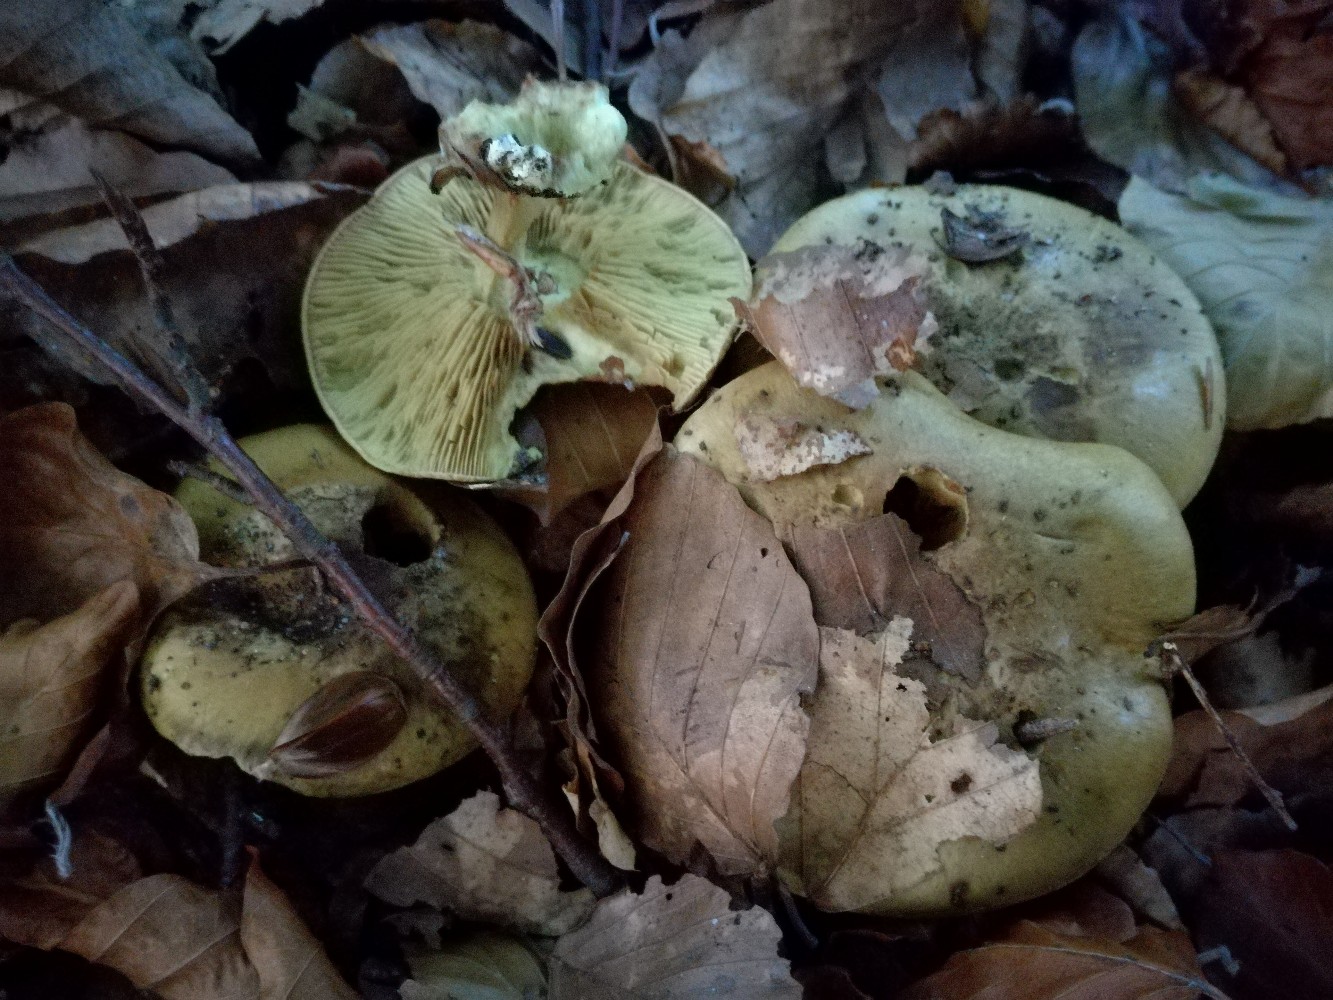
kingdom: Fungi
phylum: Basidiomycota
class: Agaricomycetes
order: Agaricales
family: Cortinariaceae
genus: Calonarius
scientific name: Calonarius citrinus
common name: citrongul slørhat
